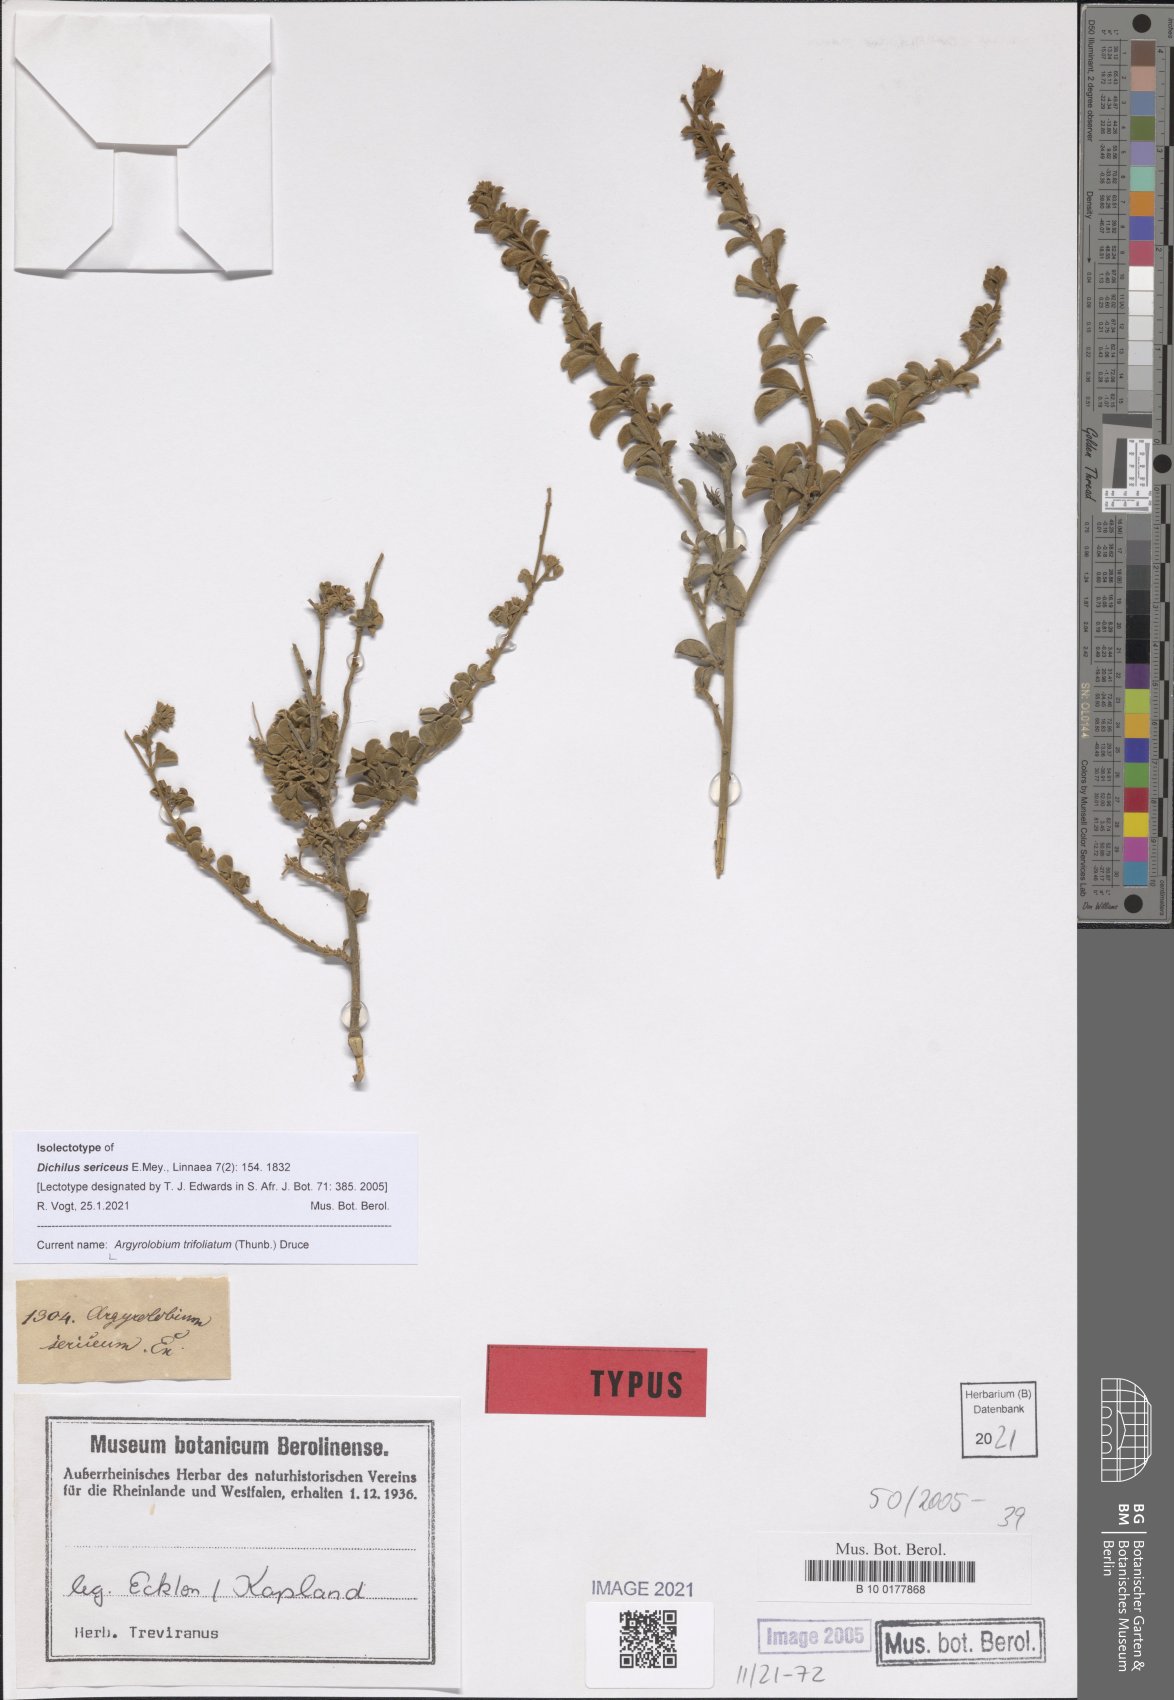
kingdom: Plantae
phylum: Tracheophyta
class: Magnoliopsida
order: Fabales
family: Fabaceae
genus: Argyrolobium
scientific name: Argyrolobium trifoliatum
